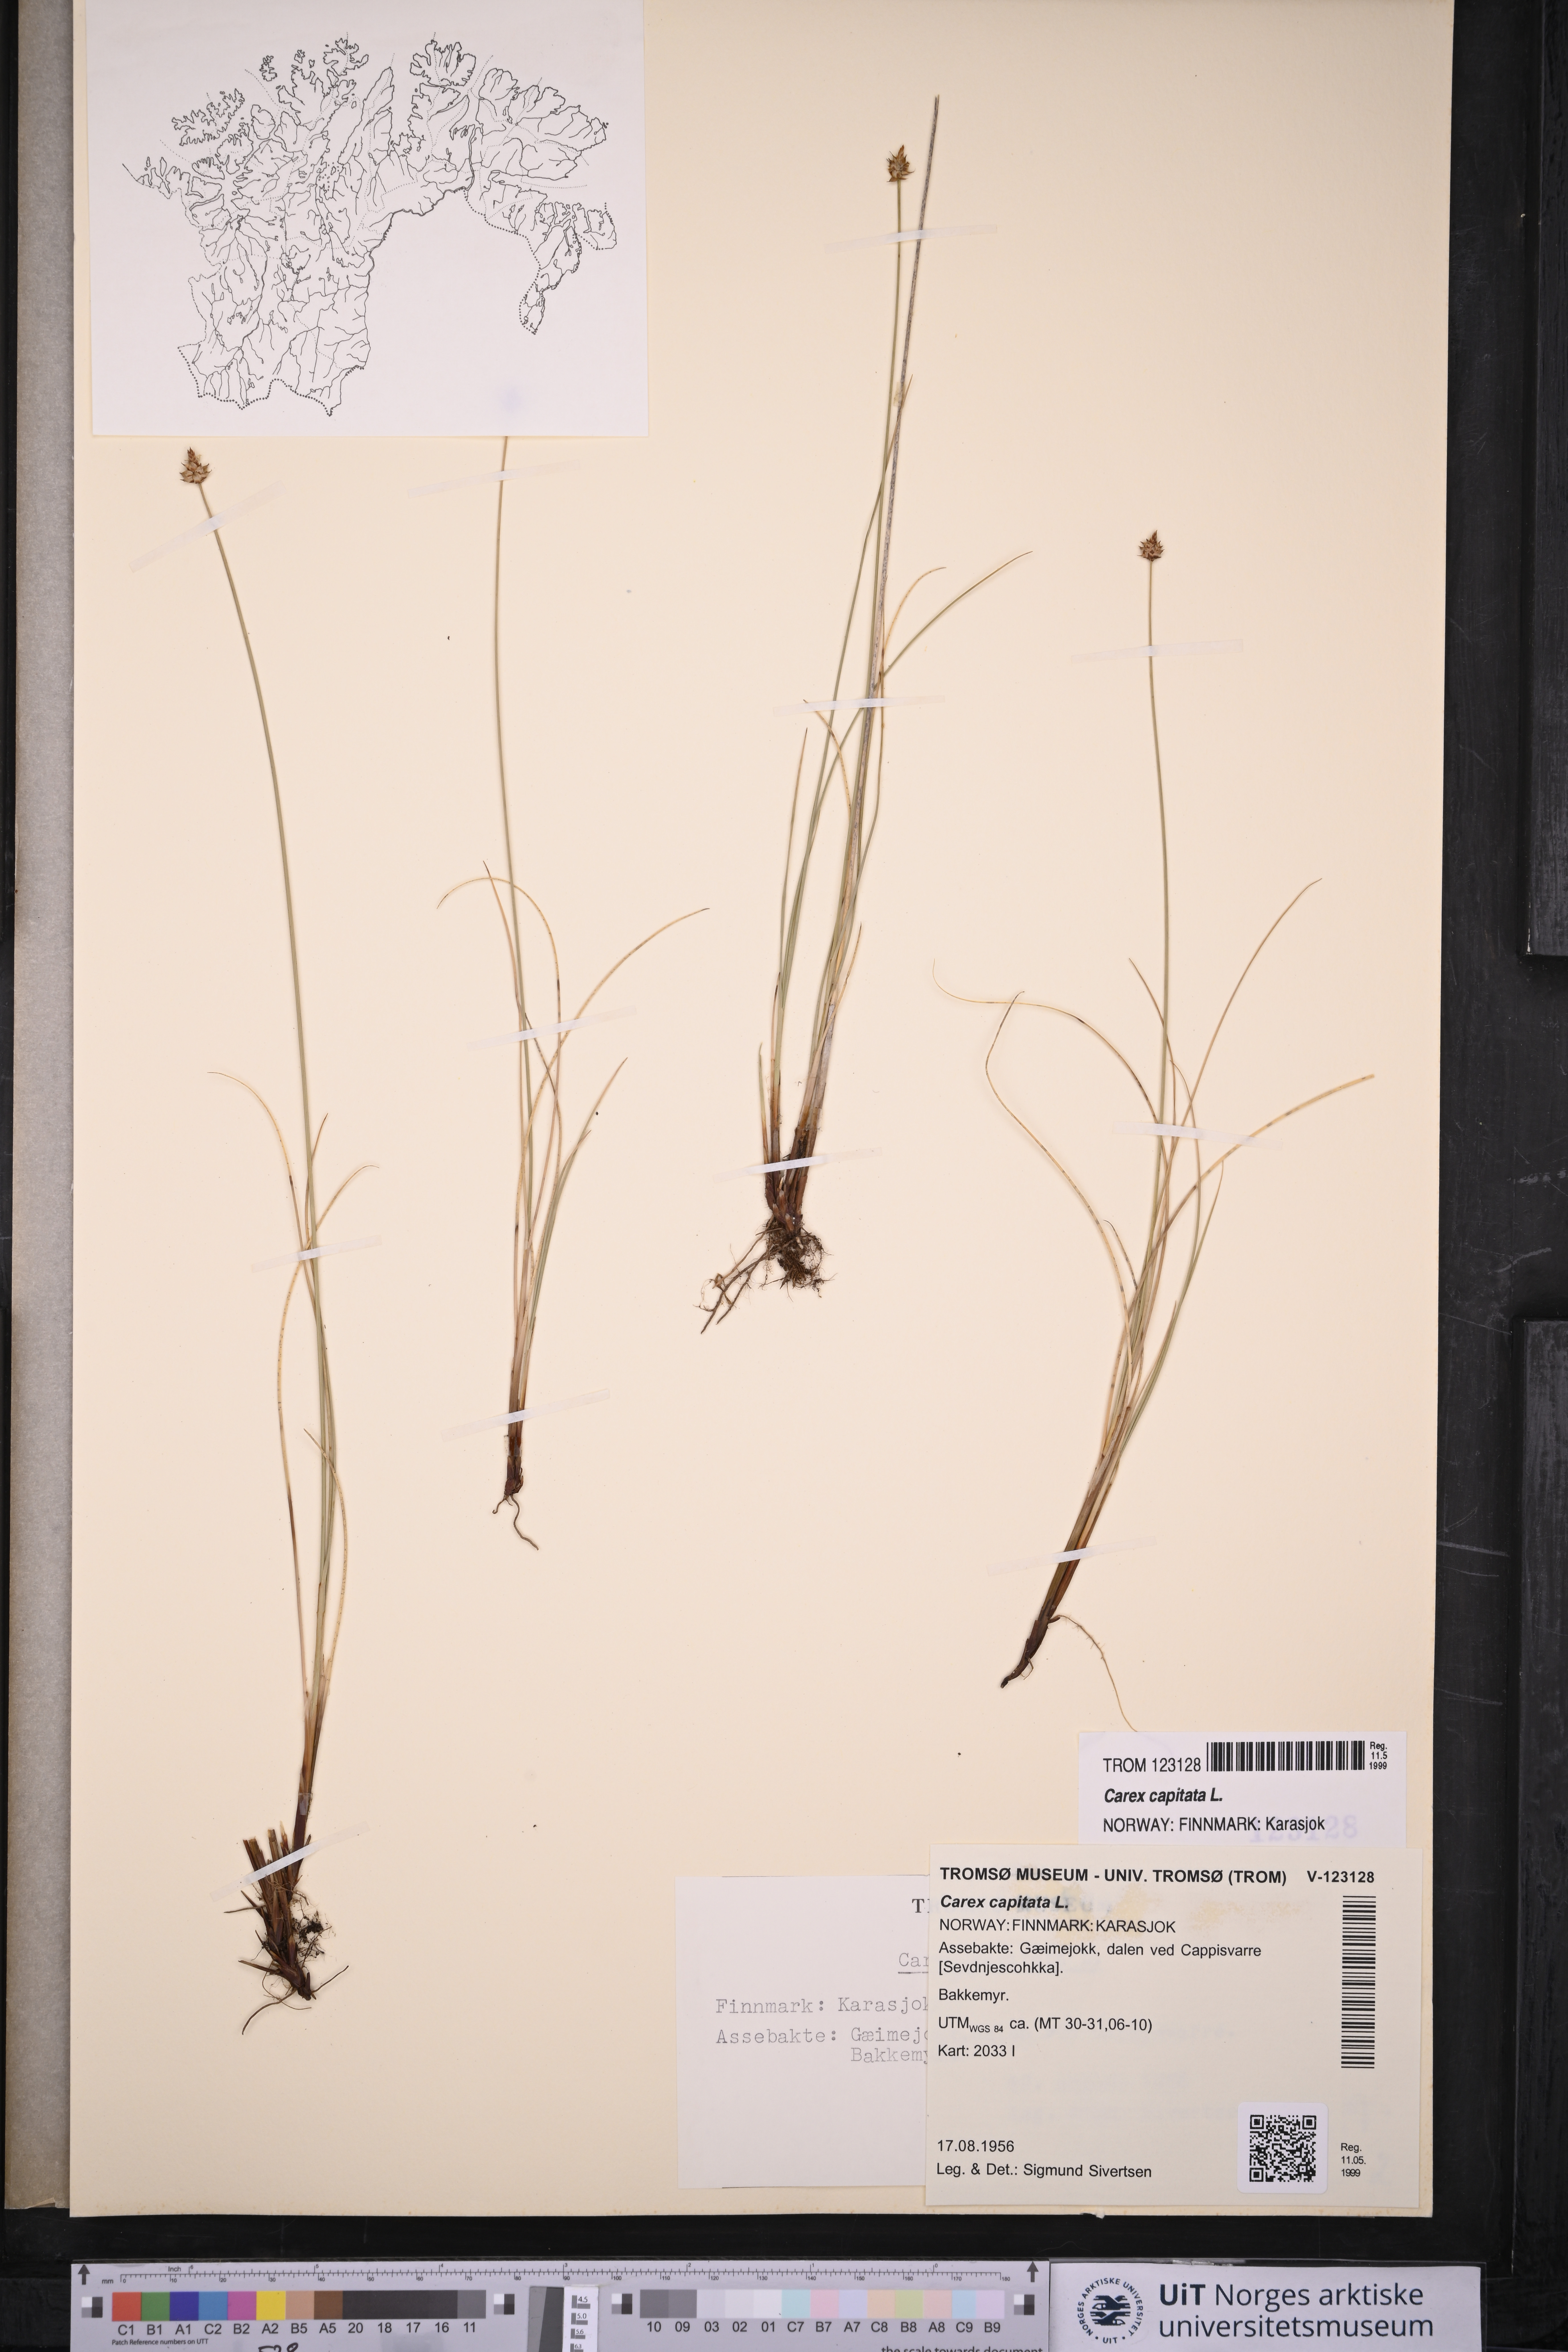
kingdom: Plantae
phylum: Tracheophyta
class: Liliopsida
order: Poales
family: Cyperaceae
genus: Carex
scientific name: Carex capitata
